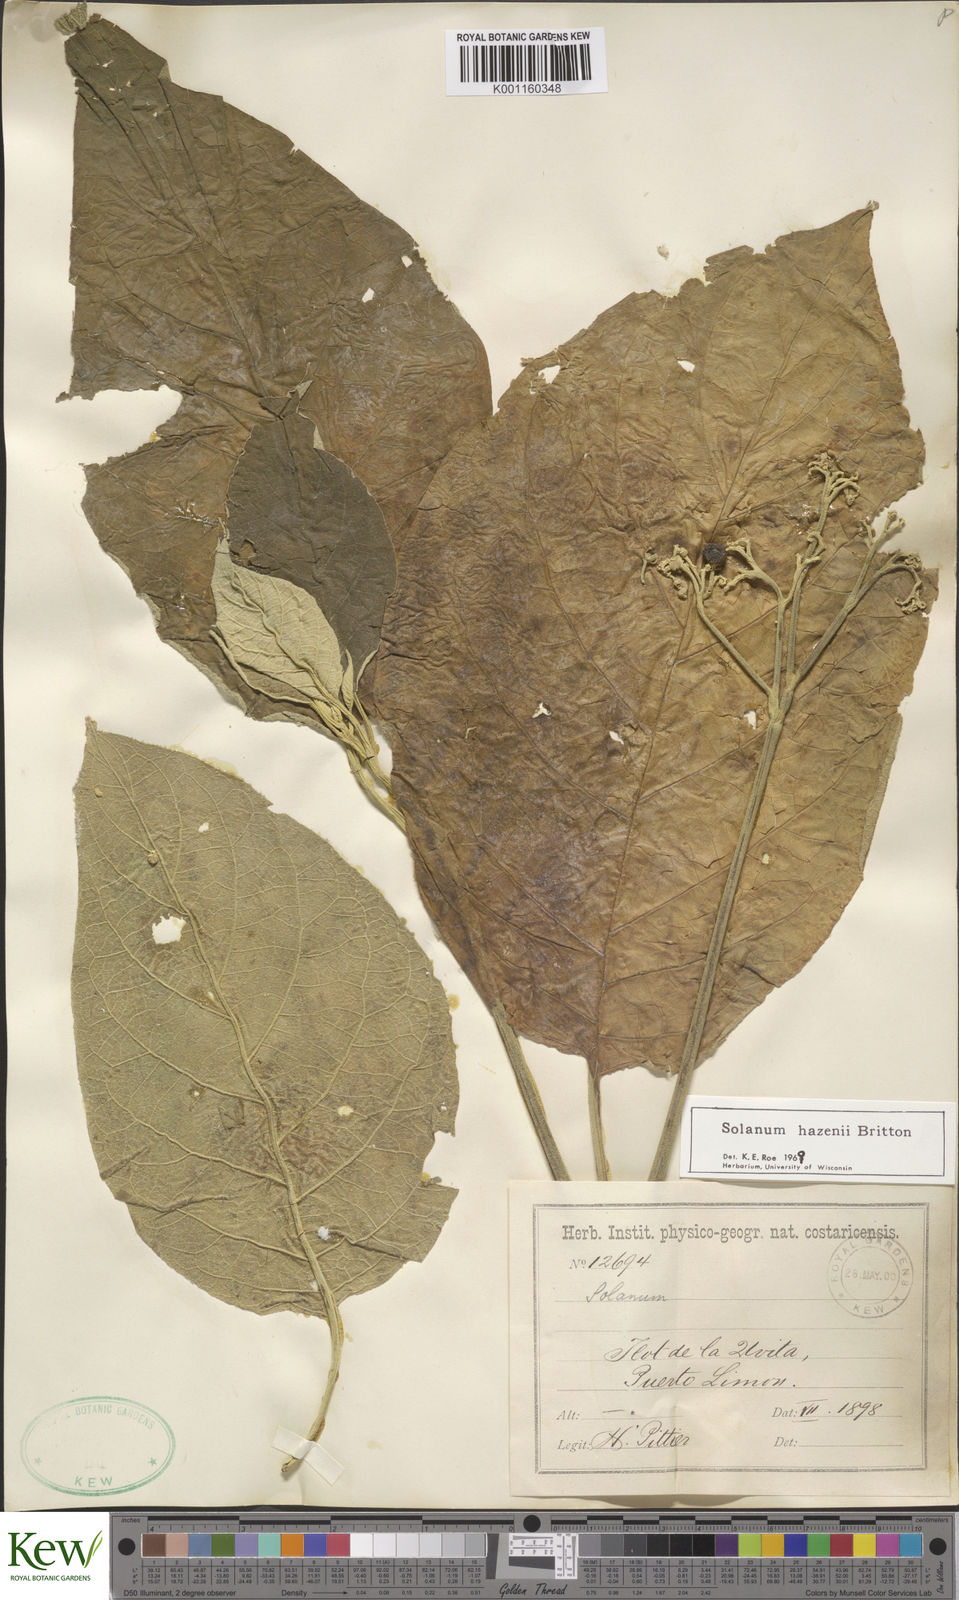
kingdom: Plantae
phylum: Tracheophyta
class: Magnoliopsida
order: Solanales
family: Solanaceae
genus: Solanum
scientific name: Solanum hazenii
